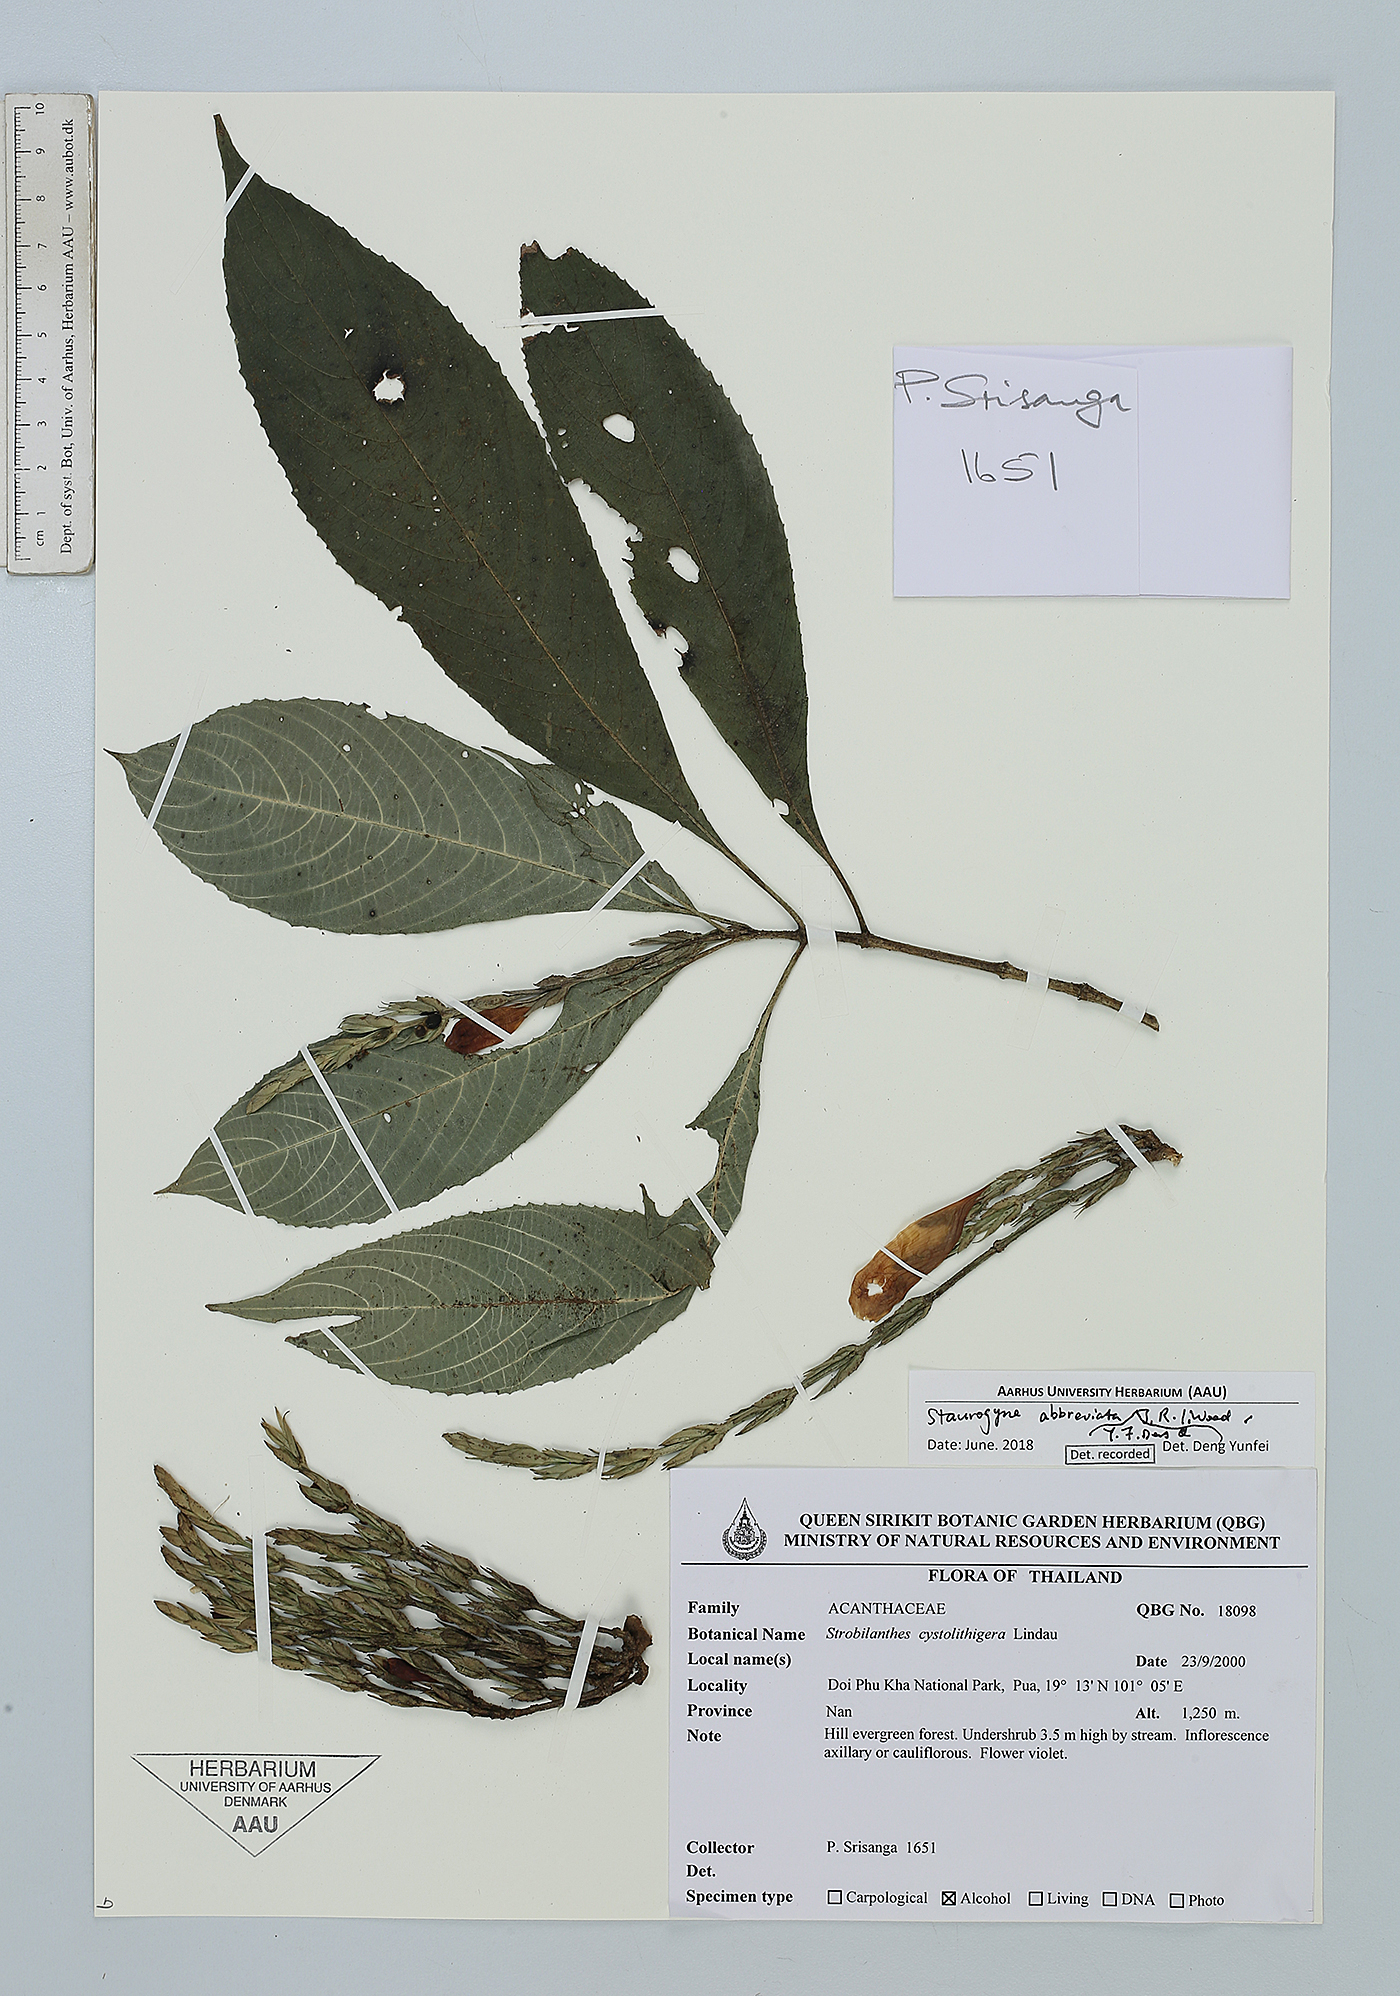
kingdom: Plantae
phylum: Tracheophyta
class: Magnoliopsida
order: Lamiales
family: Acanthaceae
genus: Strobilanthes
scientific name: Strobilanthes abbreviata
